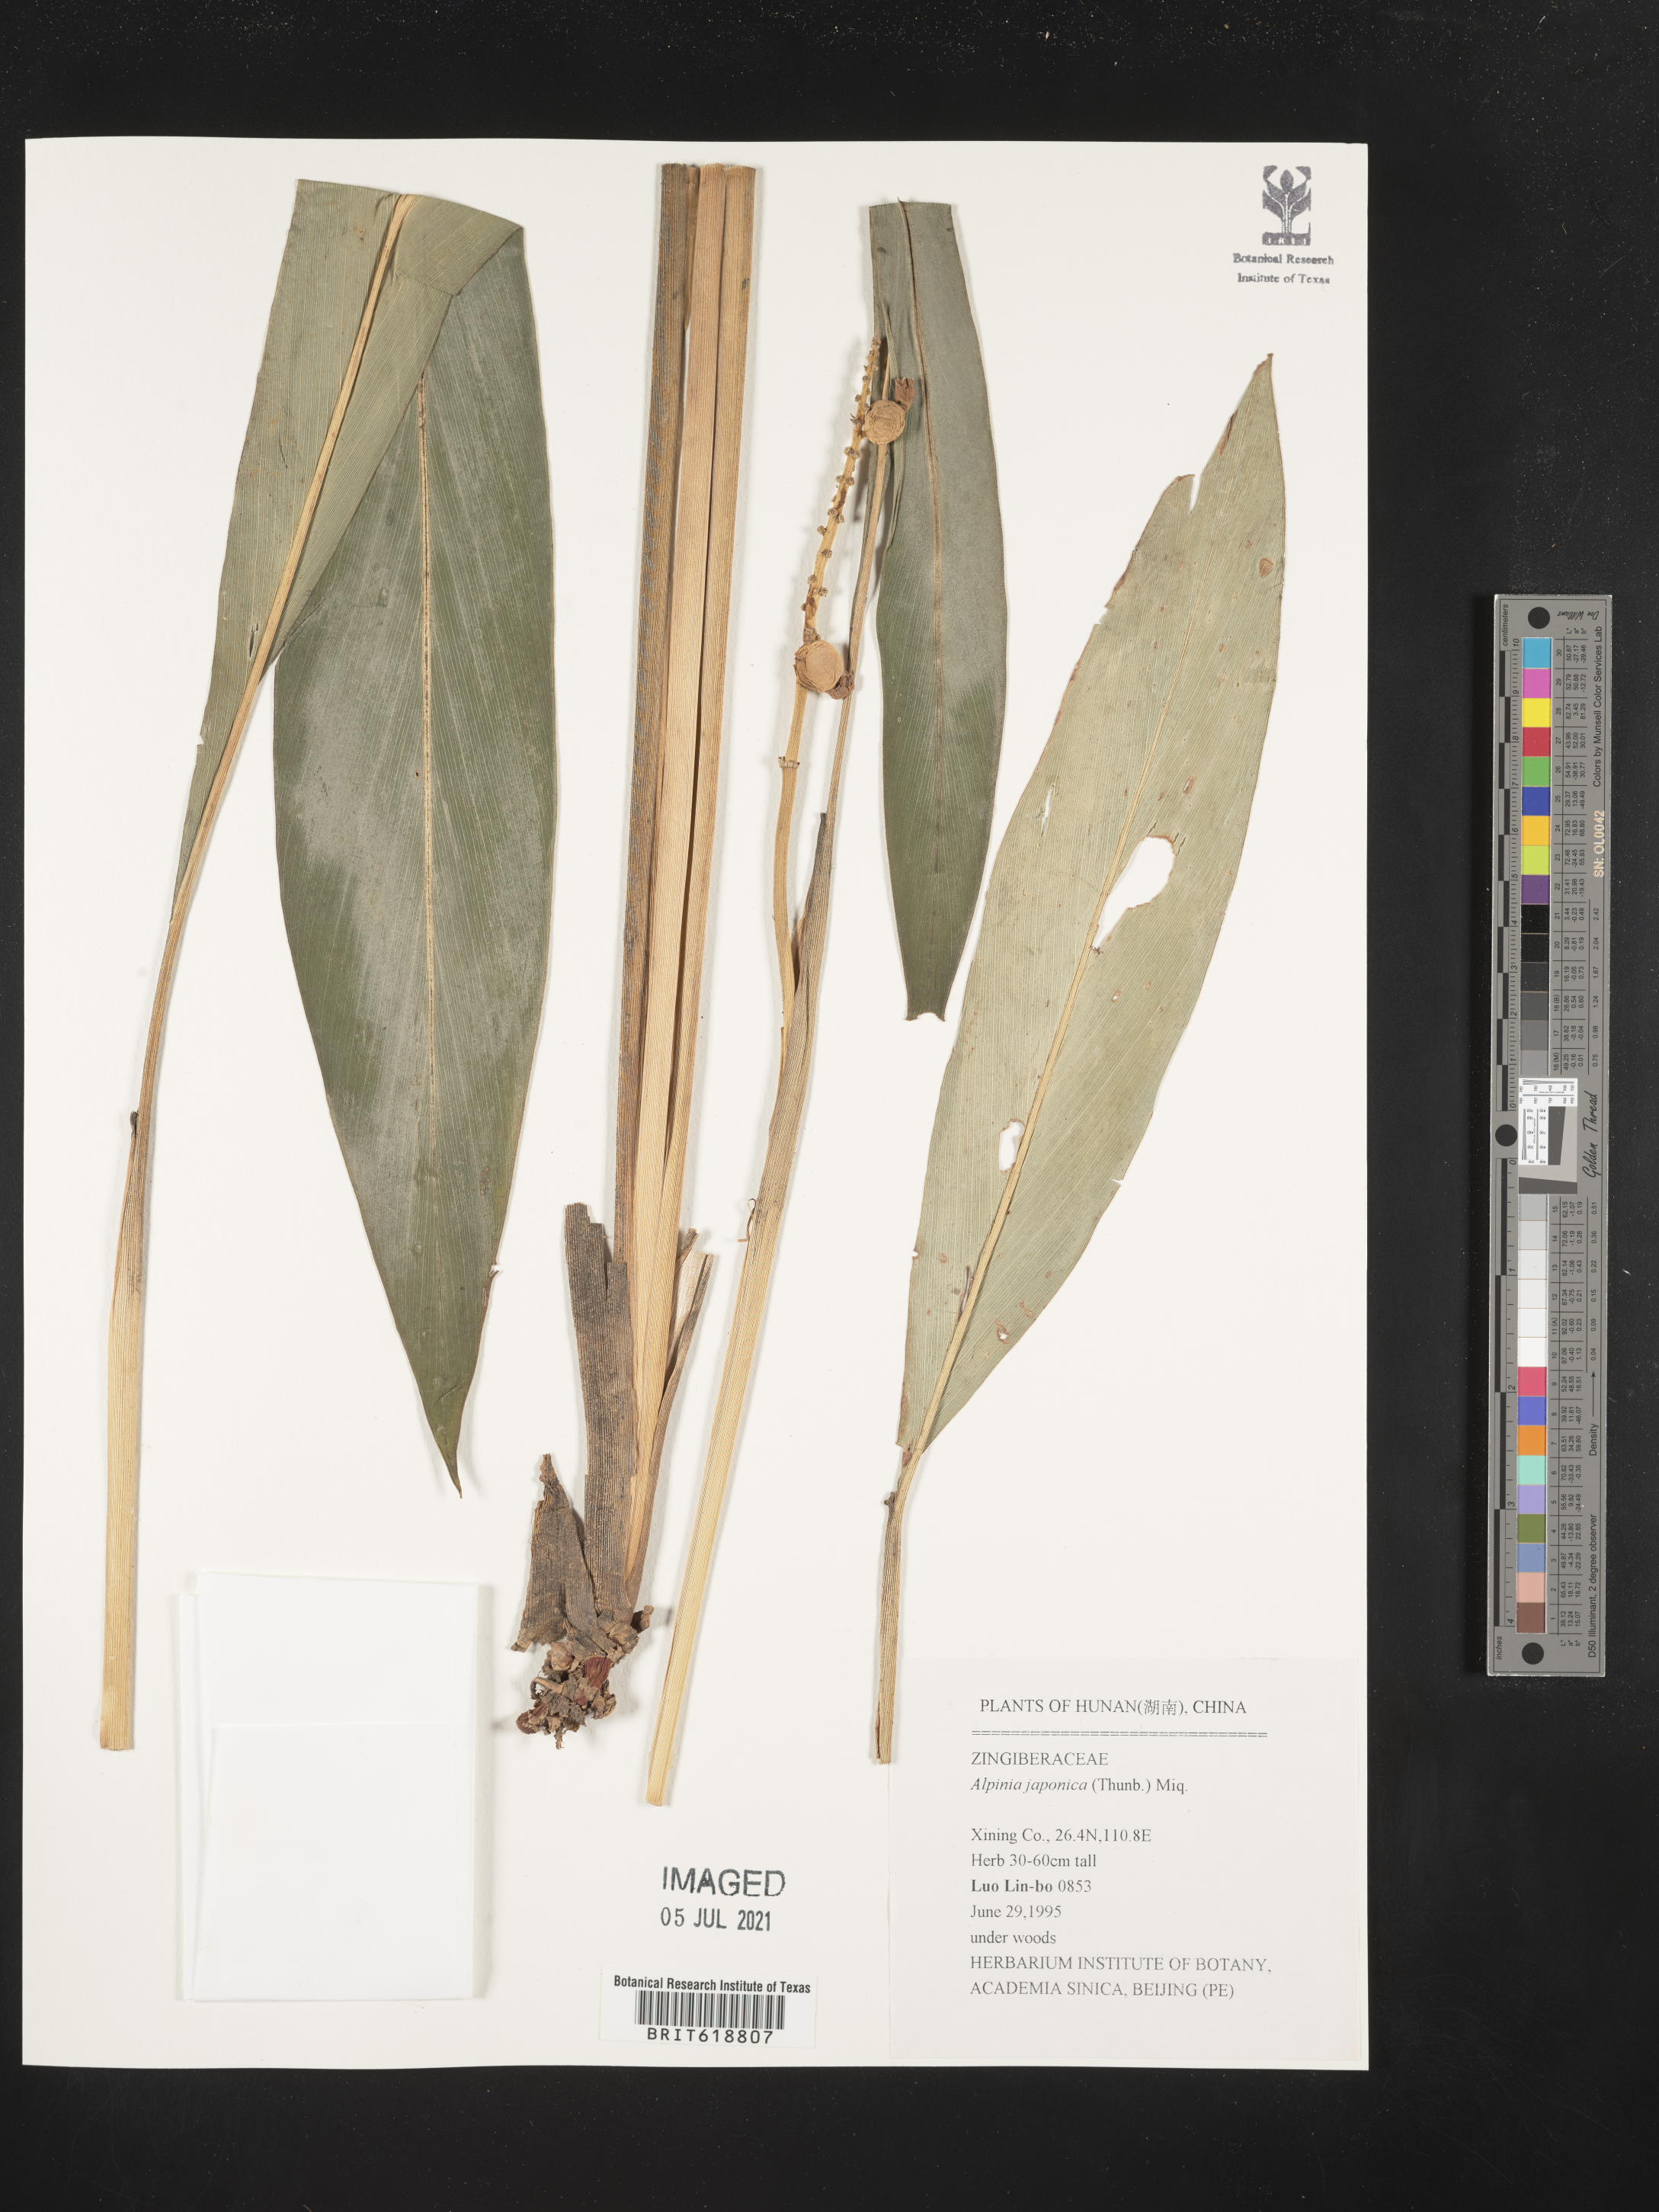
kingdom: Plantae
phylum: Tracheophyta
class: Liliopsida
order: Zingiberales
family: Zingiberaceae
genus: Alpinia
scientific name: Alpinia japonica
